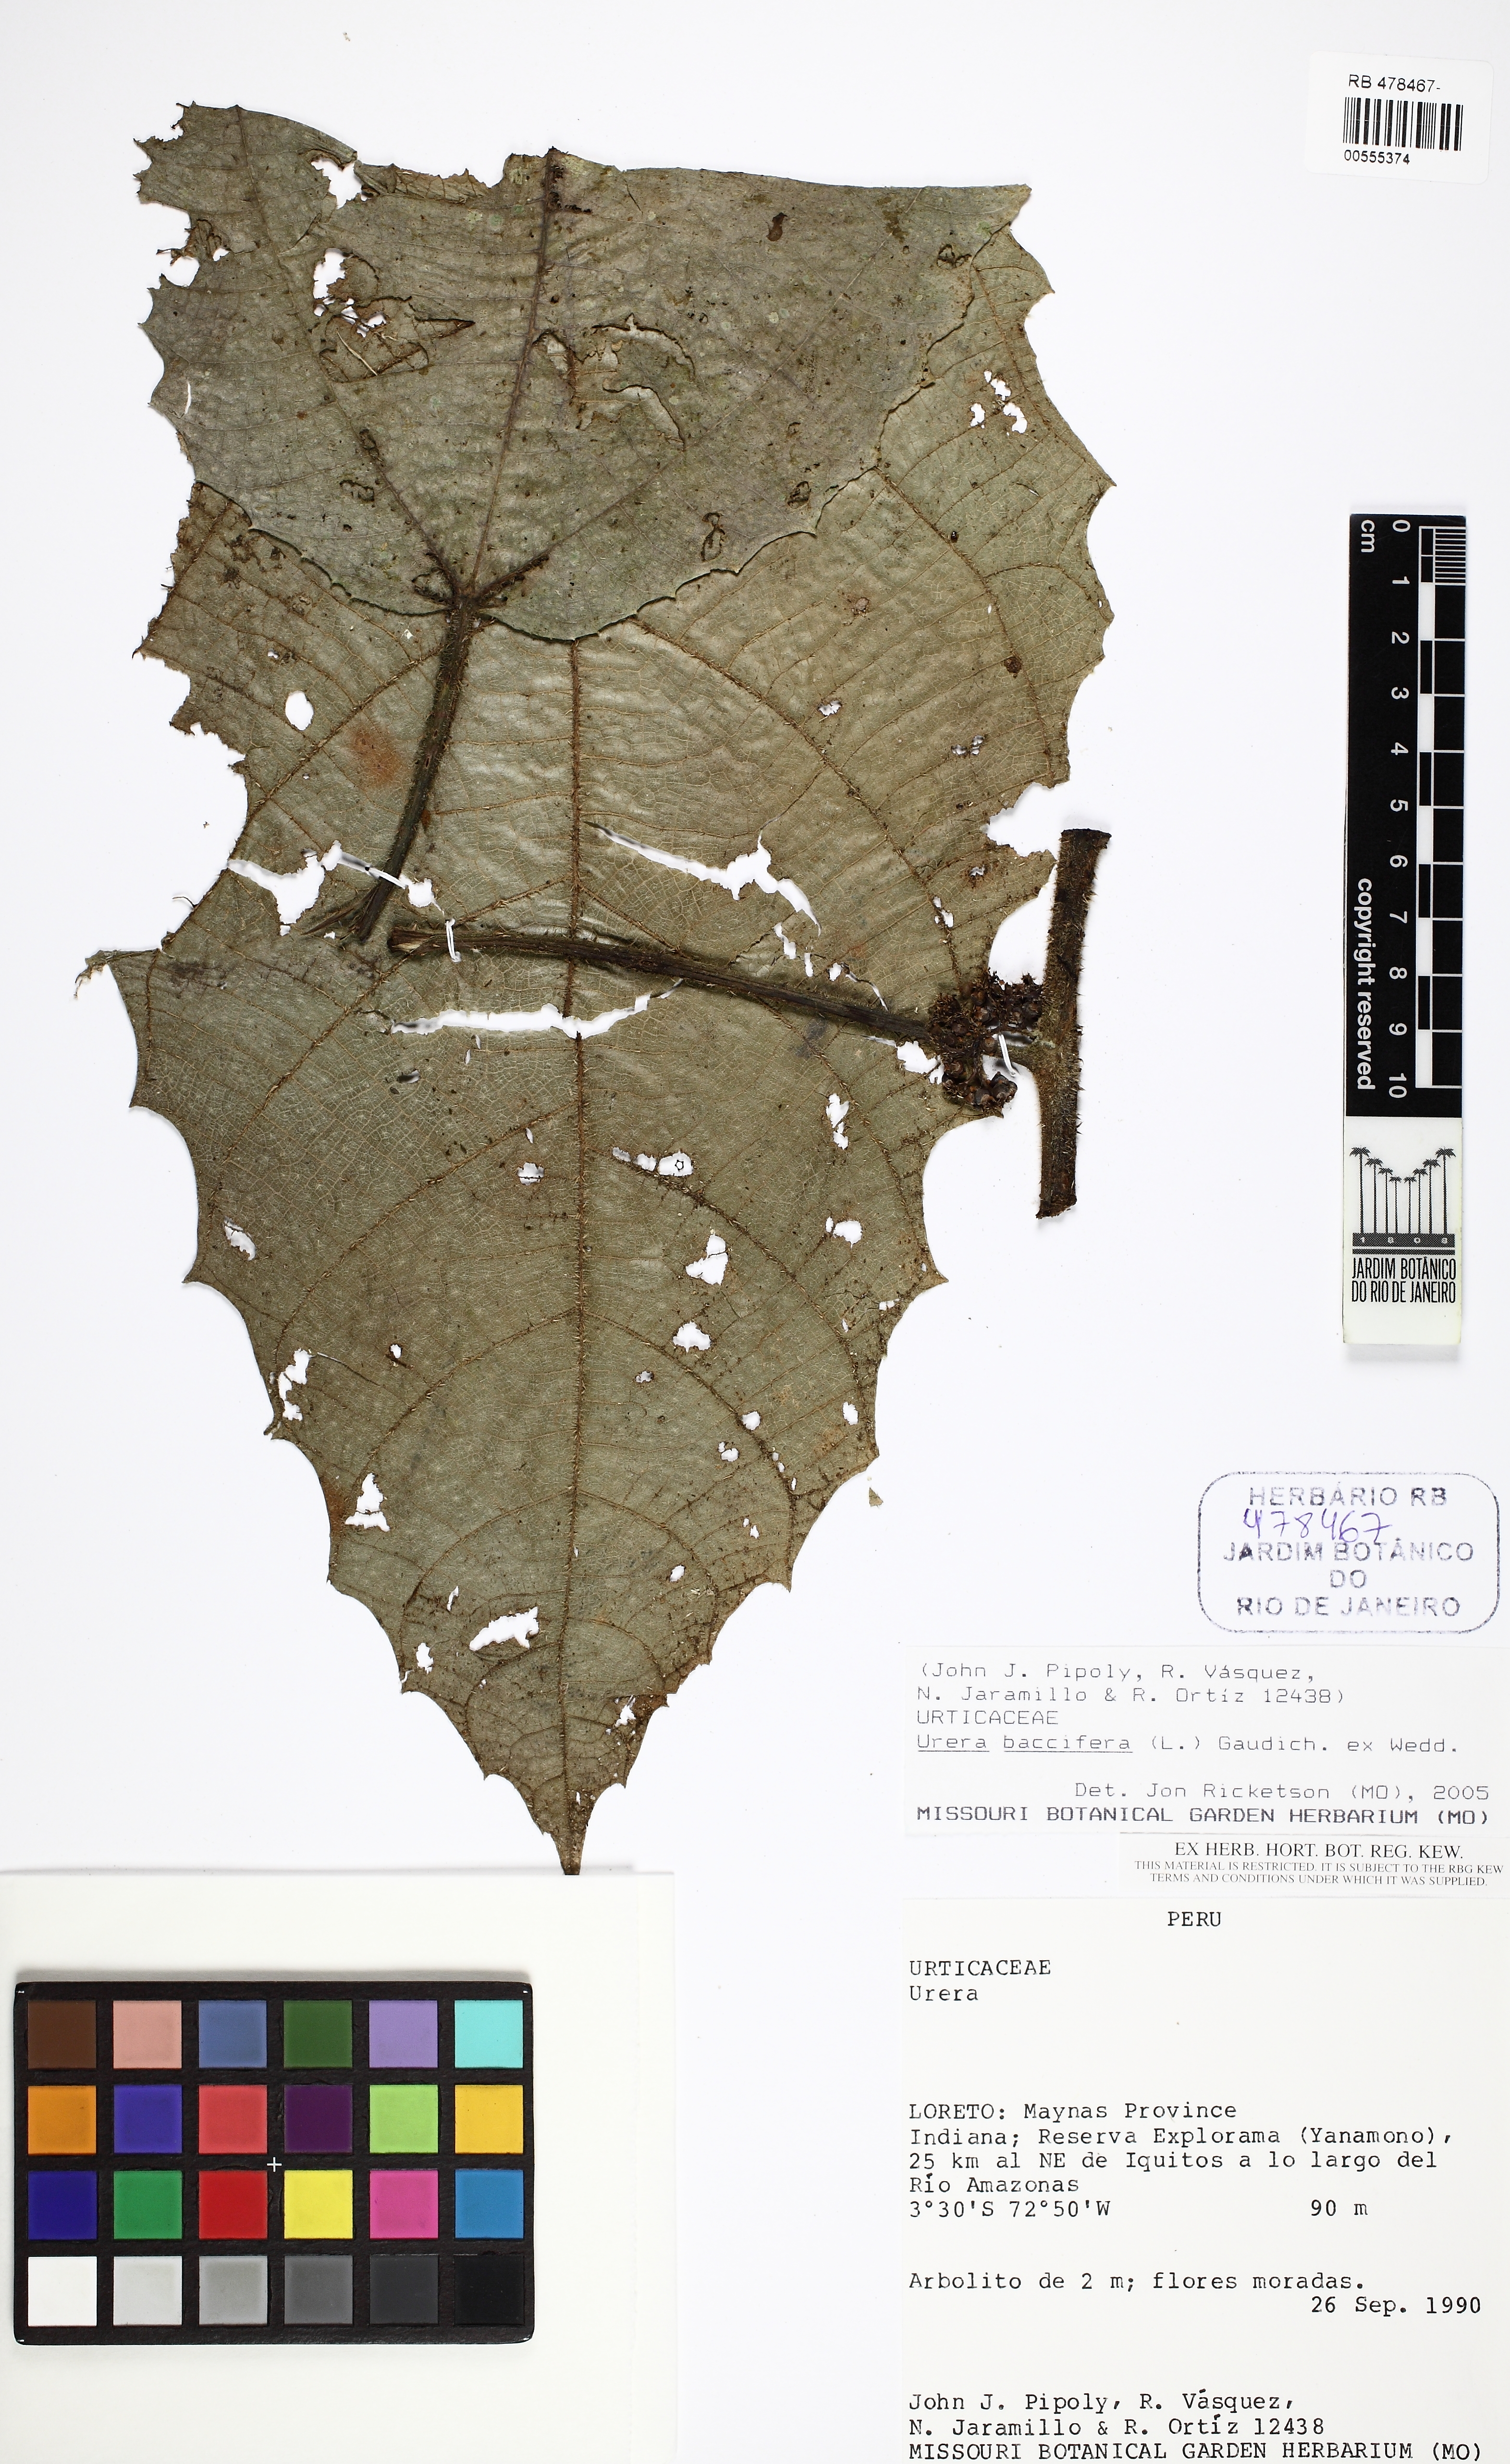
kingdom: Plantae
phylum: Tracheophyta
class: Magnoliopsida
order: Rosales
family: Urticaceae
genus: Urera
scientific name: Urera
